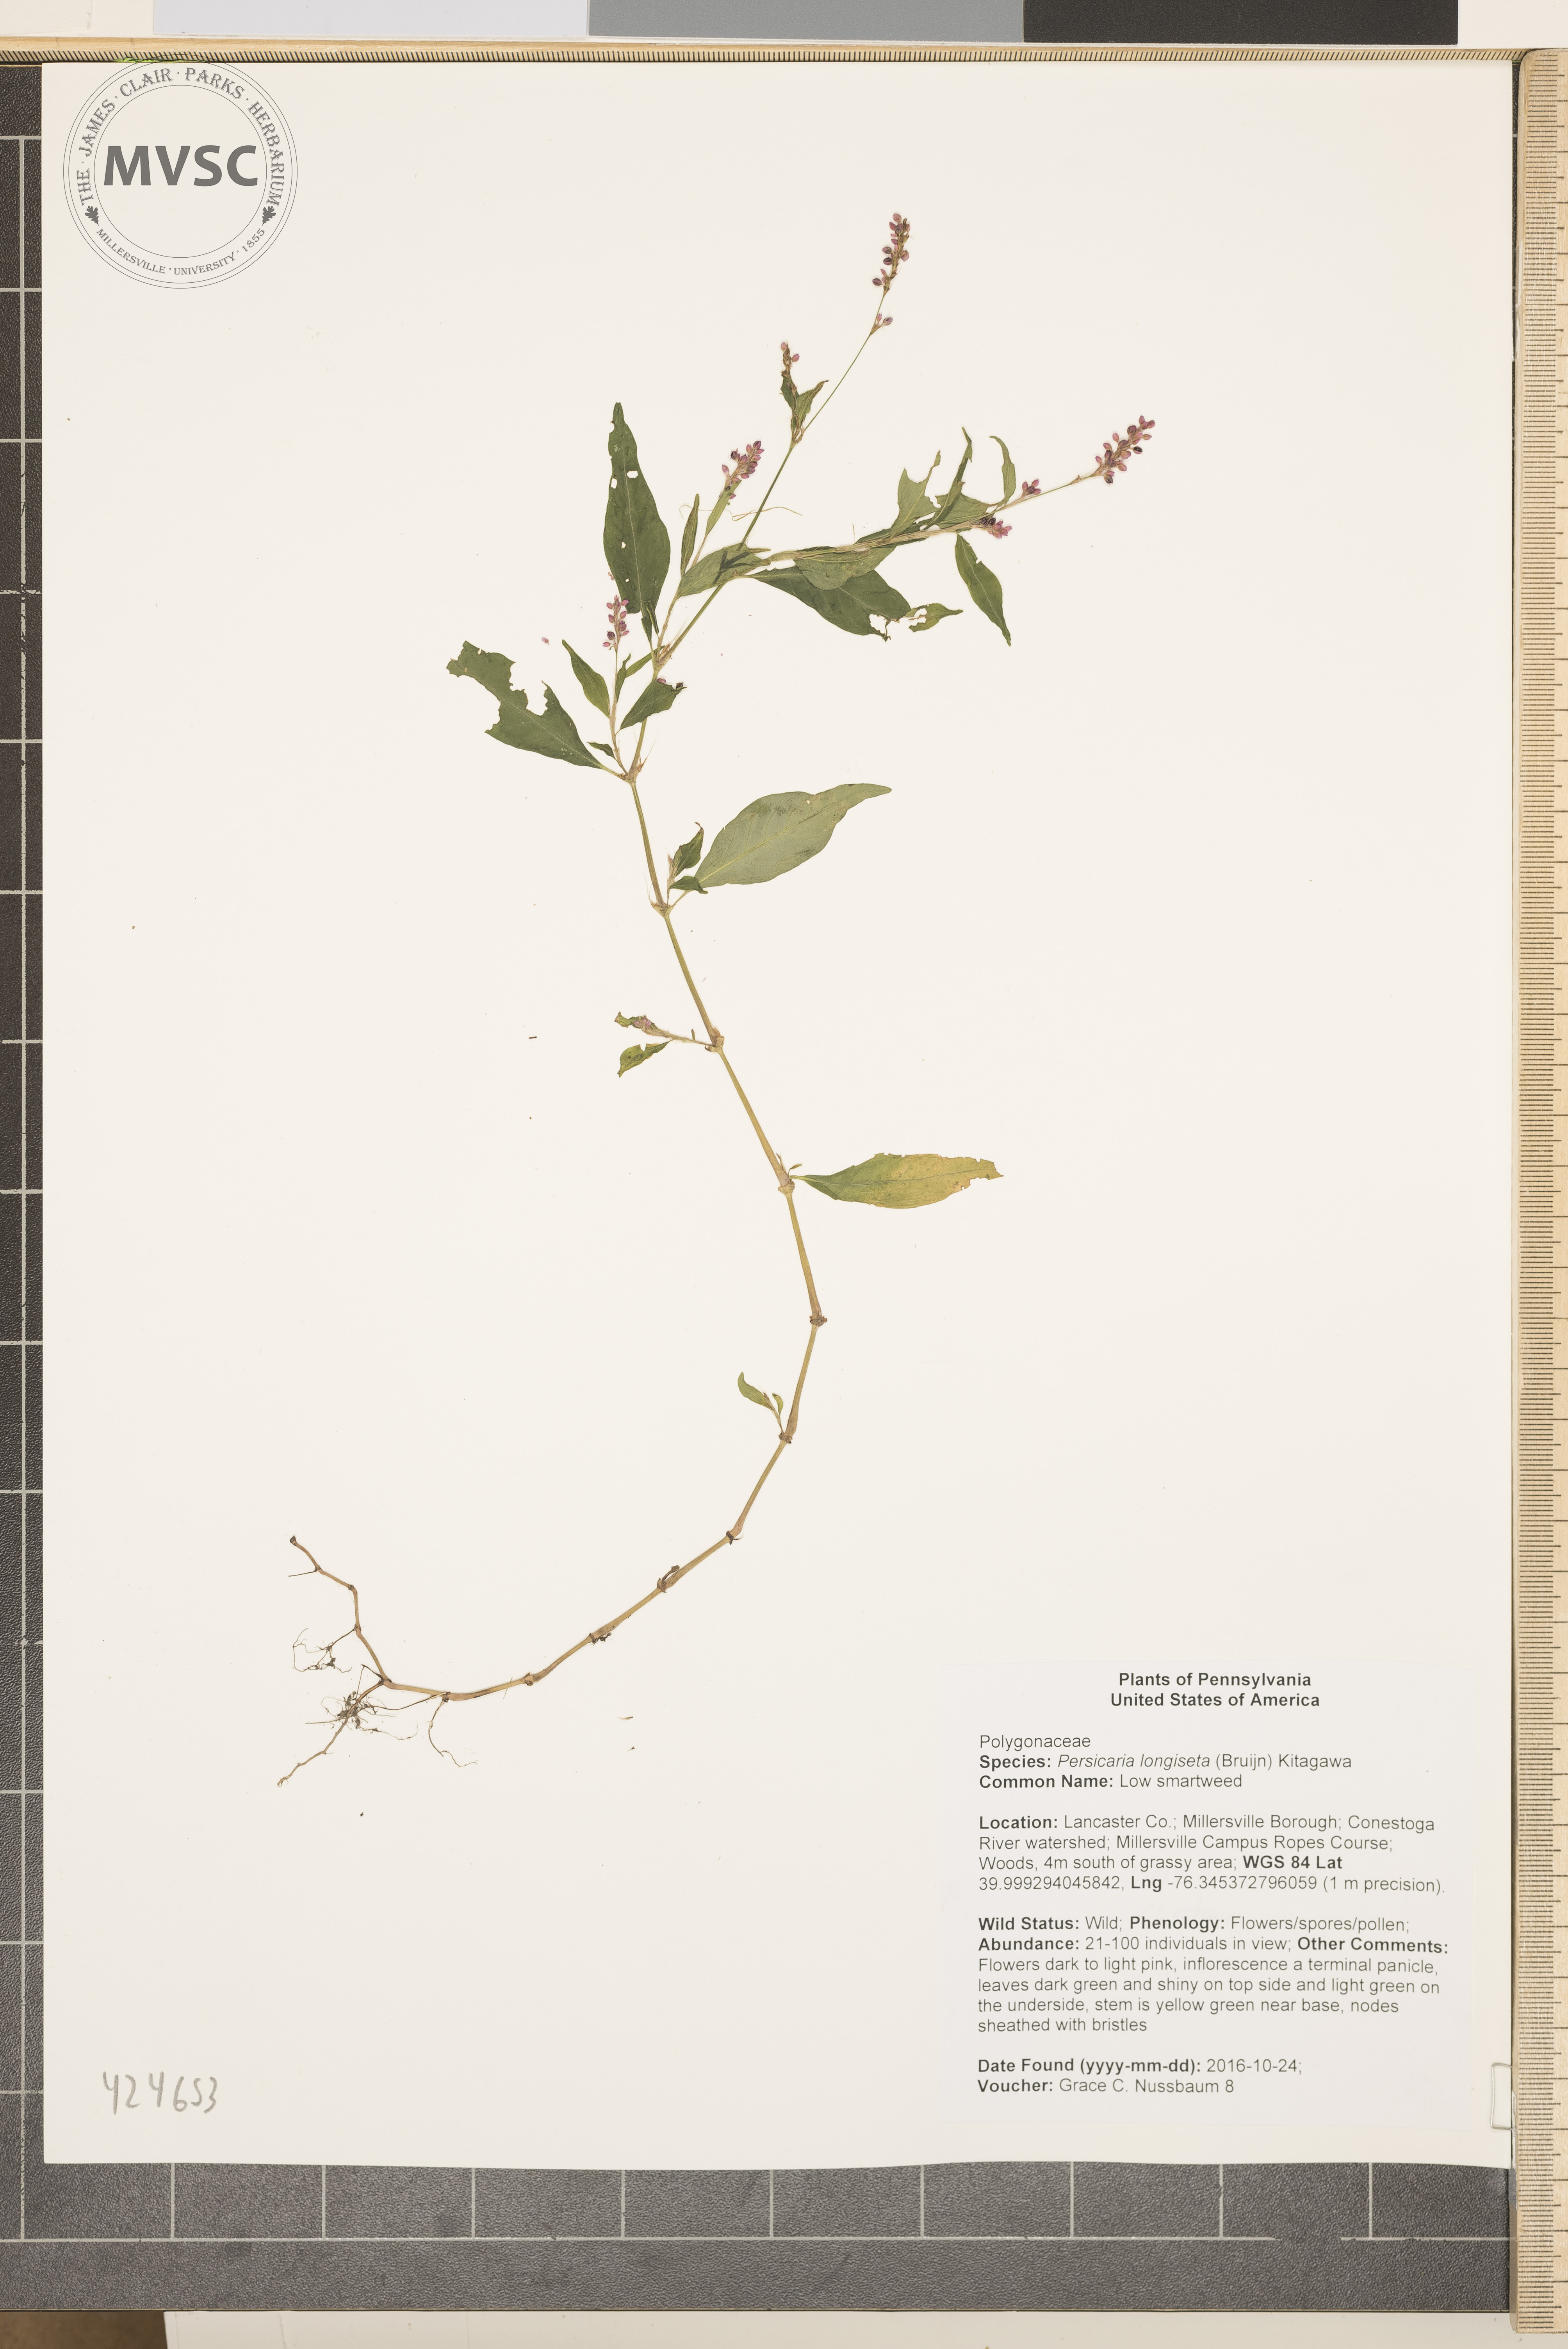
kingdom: Plantae
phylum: Tracheophyta
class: Magnoliopsida
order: Caryophyllales
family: Polygonaceae
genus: Persicaria
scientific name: Persicaria longiseta
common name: Low smartweed
